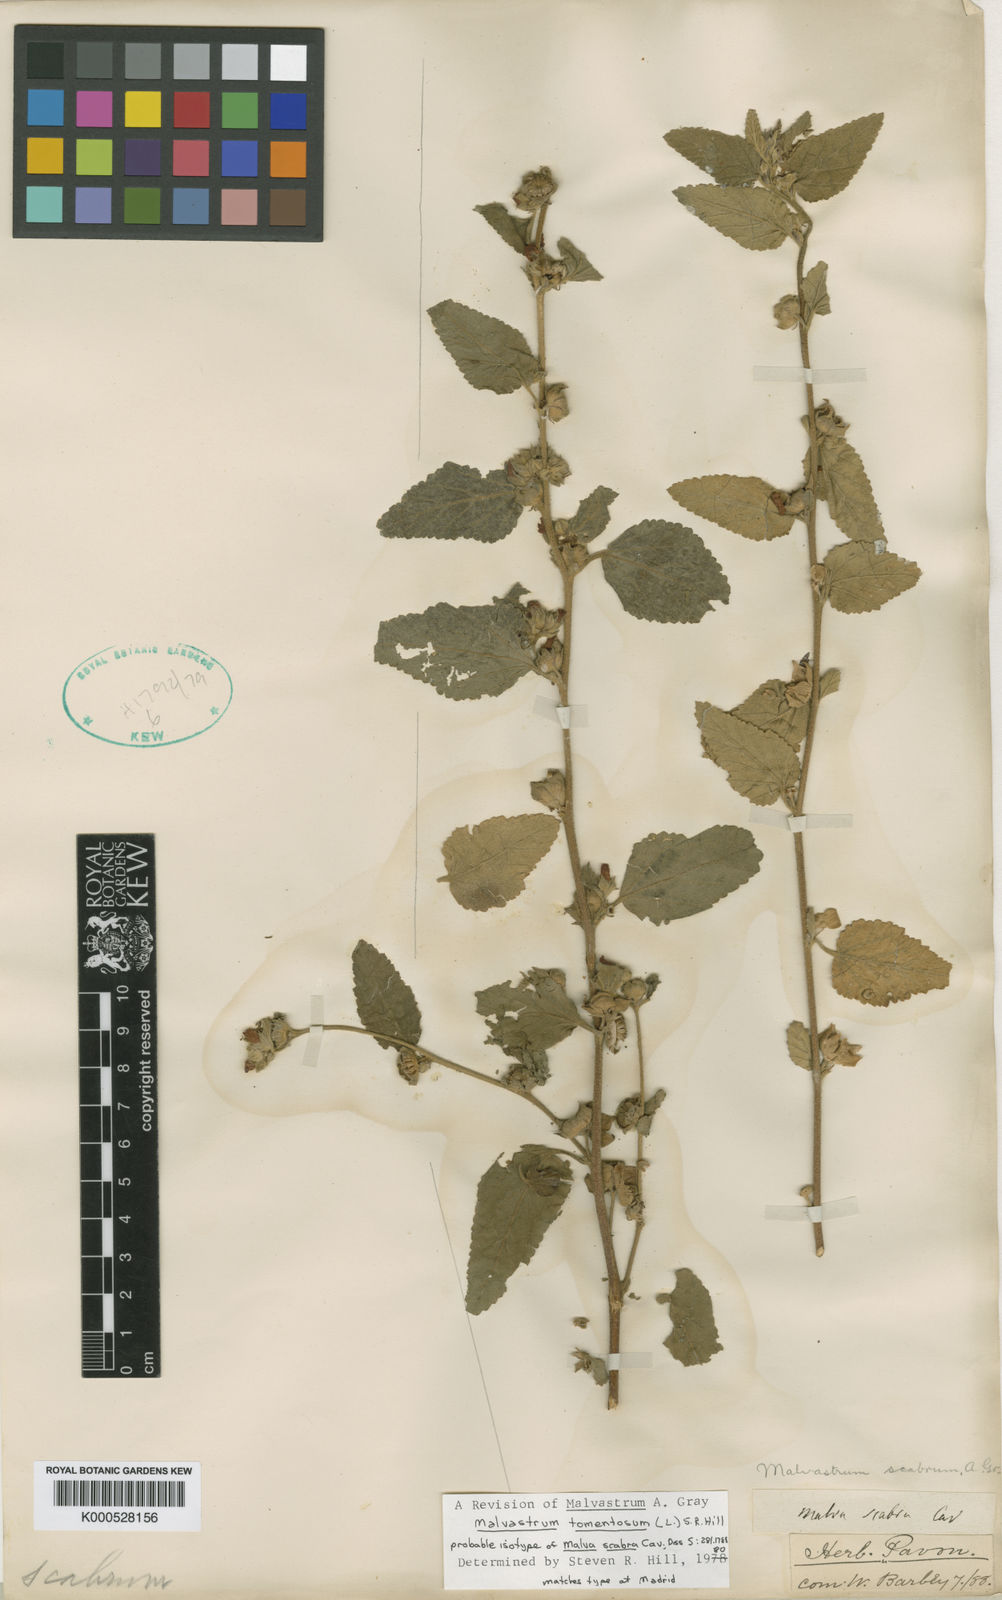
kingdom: Plantae
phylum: Tracheophyta
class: Magnoliopsida
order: Malvales
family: Malvaceae
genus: Malvastrum
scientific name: Malvastrum tomentosum
